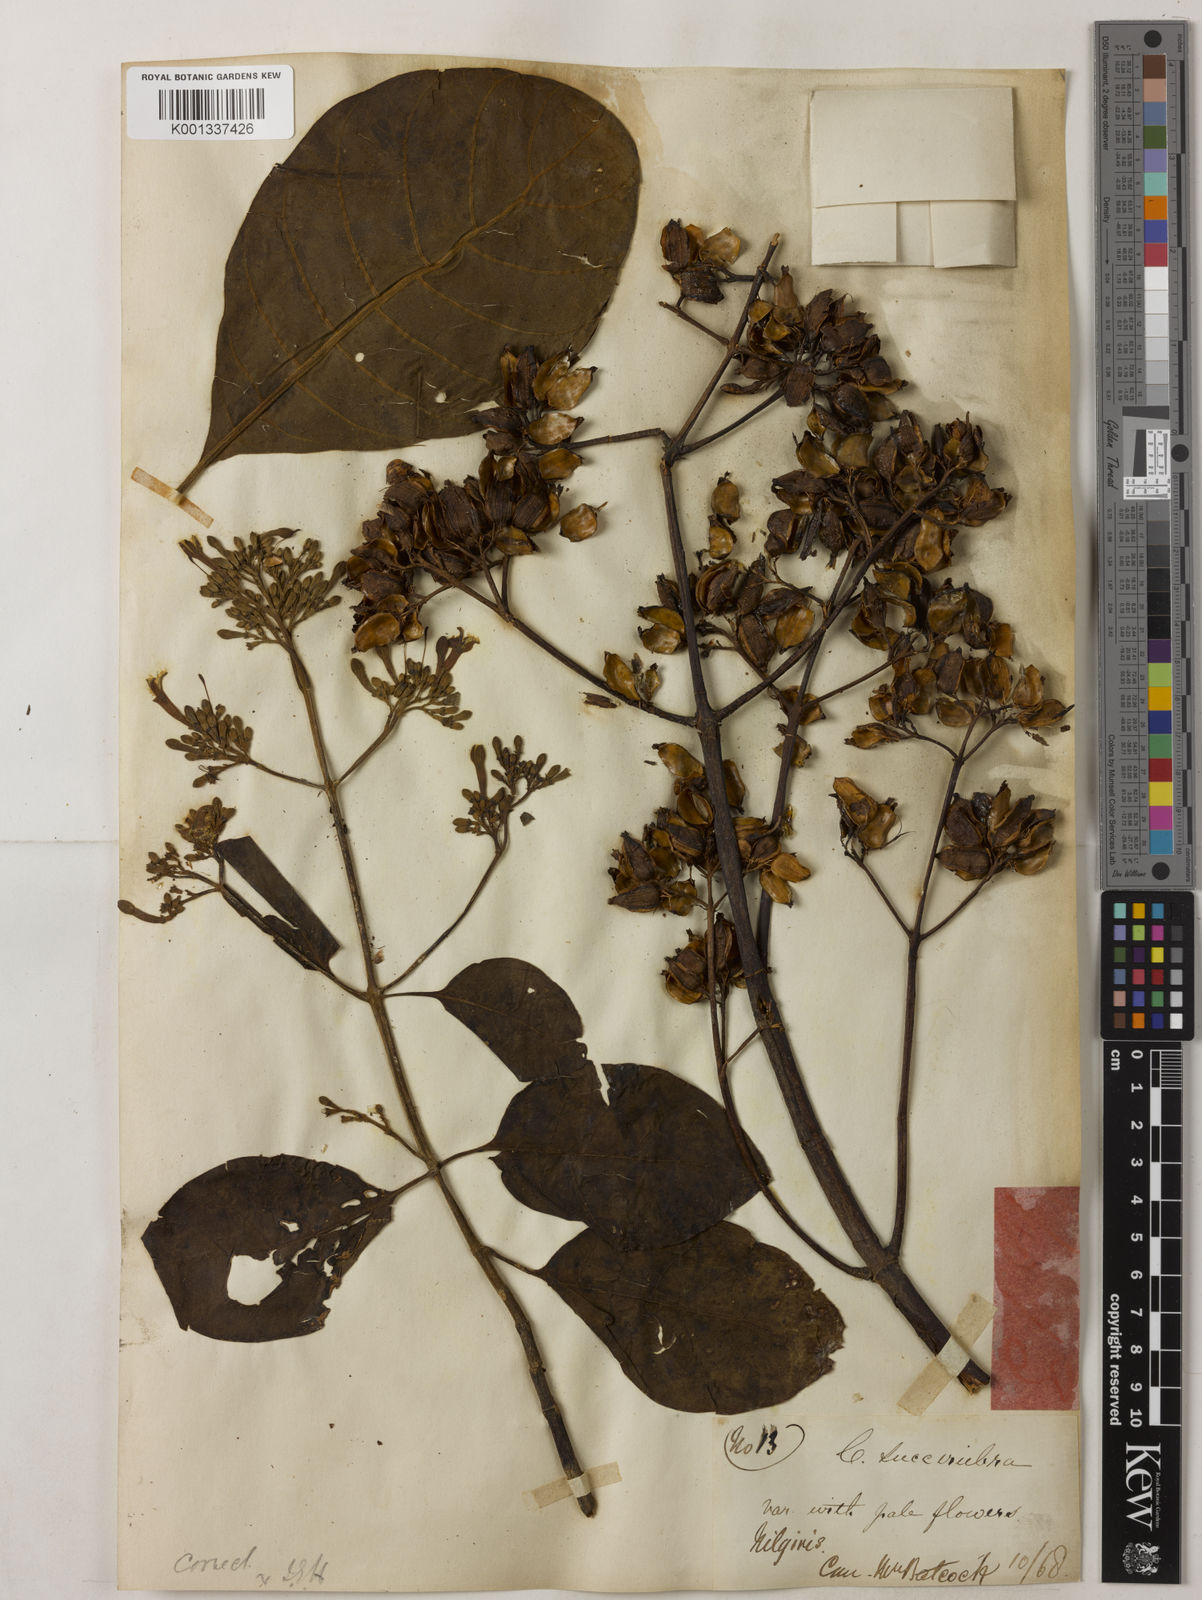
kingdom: Plantae
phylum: Tracheophyta
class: Magnoliopsida
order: Gentianales
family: Rubiaceae
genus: Cinchona
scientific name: Cinchona pubescens
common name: Quinine
